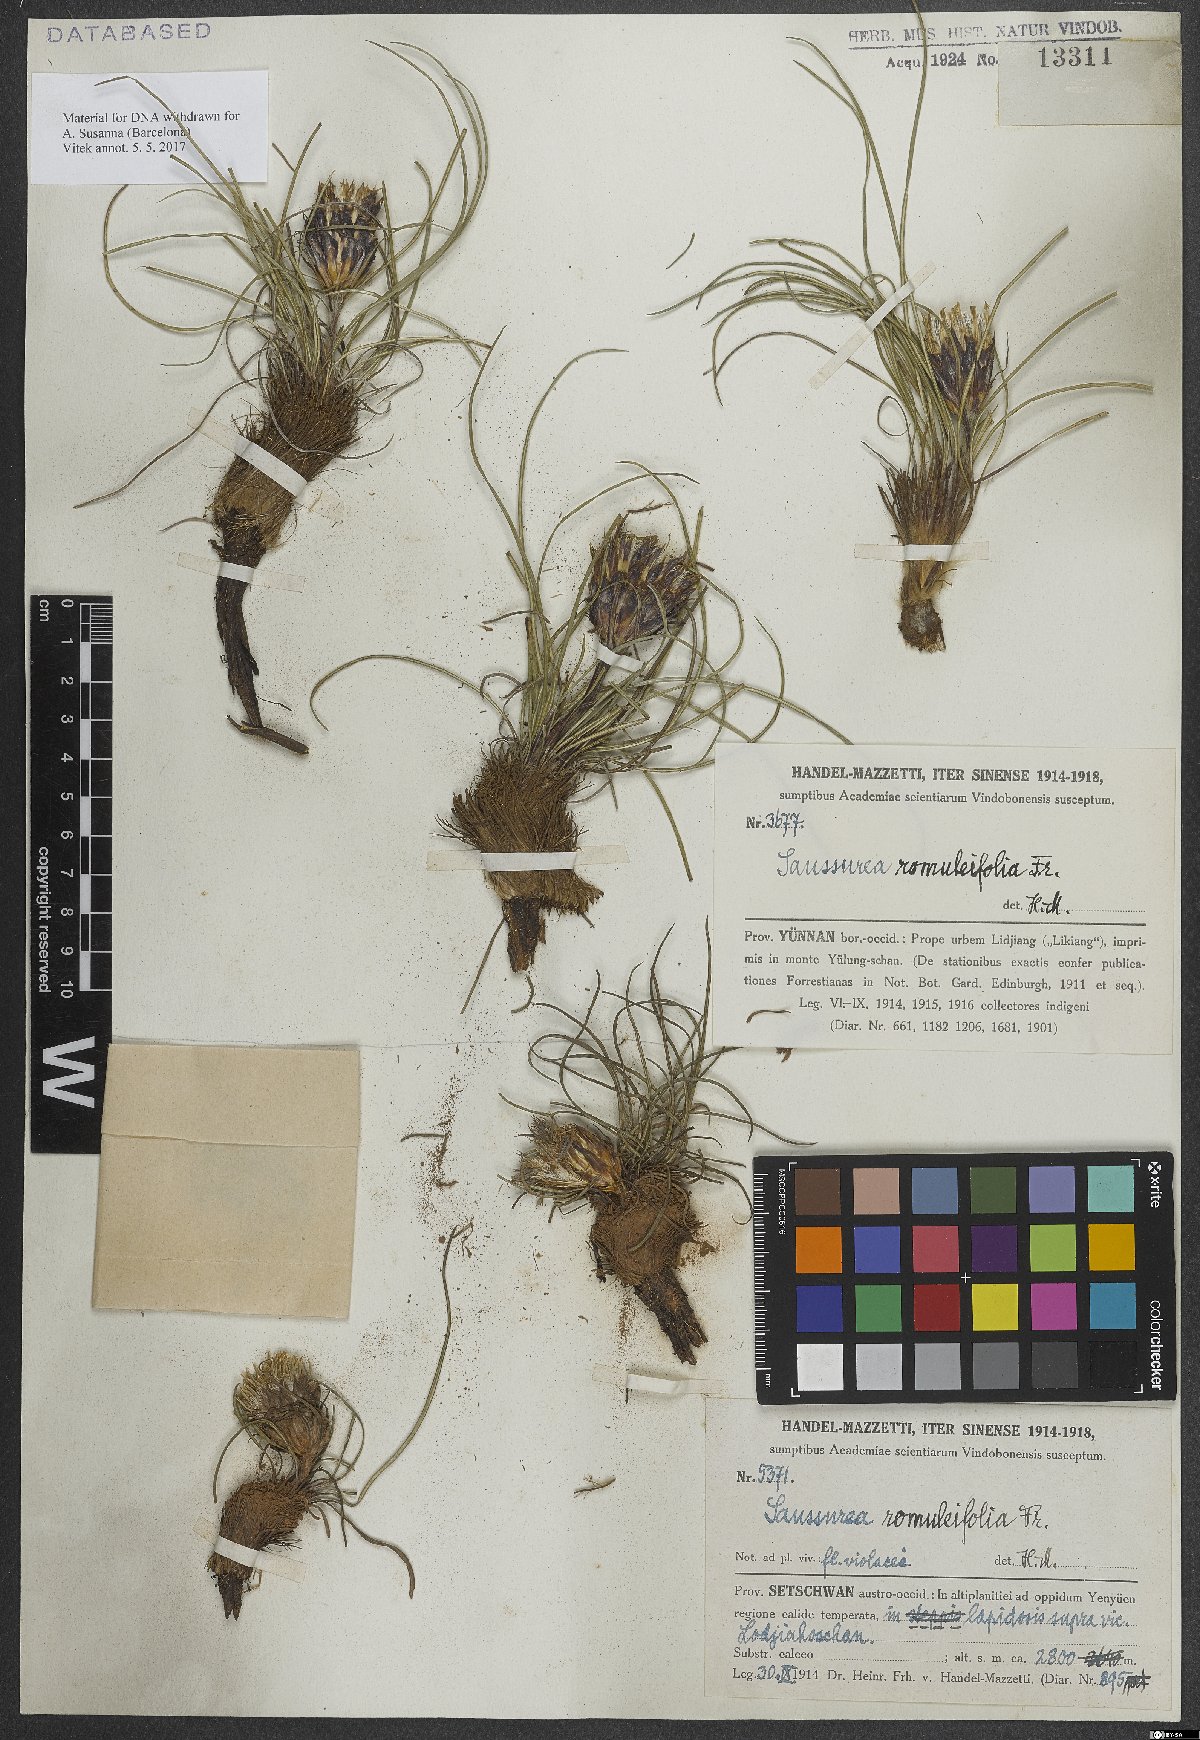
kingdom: Plantae
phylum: Tracheophyta
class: Magnoliopsida
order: Asterales
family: Asteraceae
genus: Saussurea
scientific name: Saussurea romuleifolia
